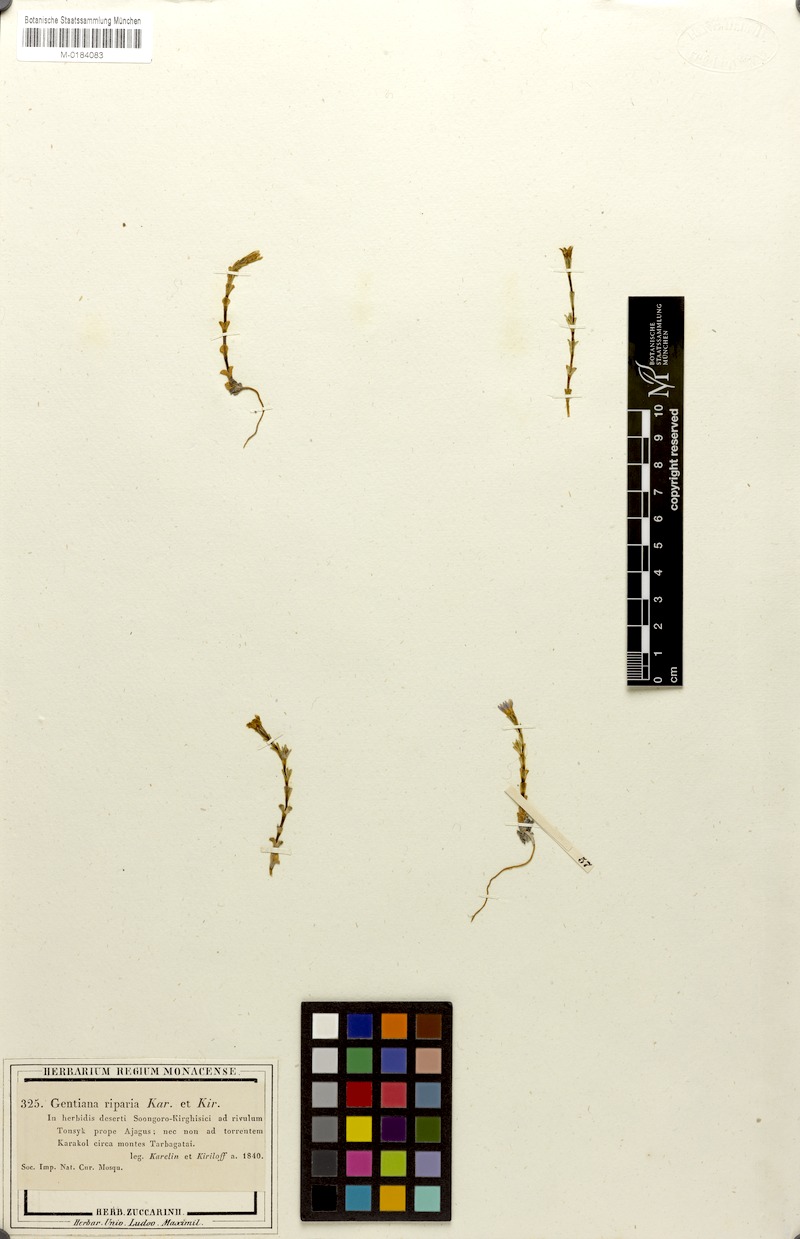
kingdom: Plantae
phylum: Tracheophyta
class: Magnoliopsida
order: Gentianales
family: Gentianaceae
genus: Gentiana
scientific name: Gentiana riparia
